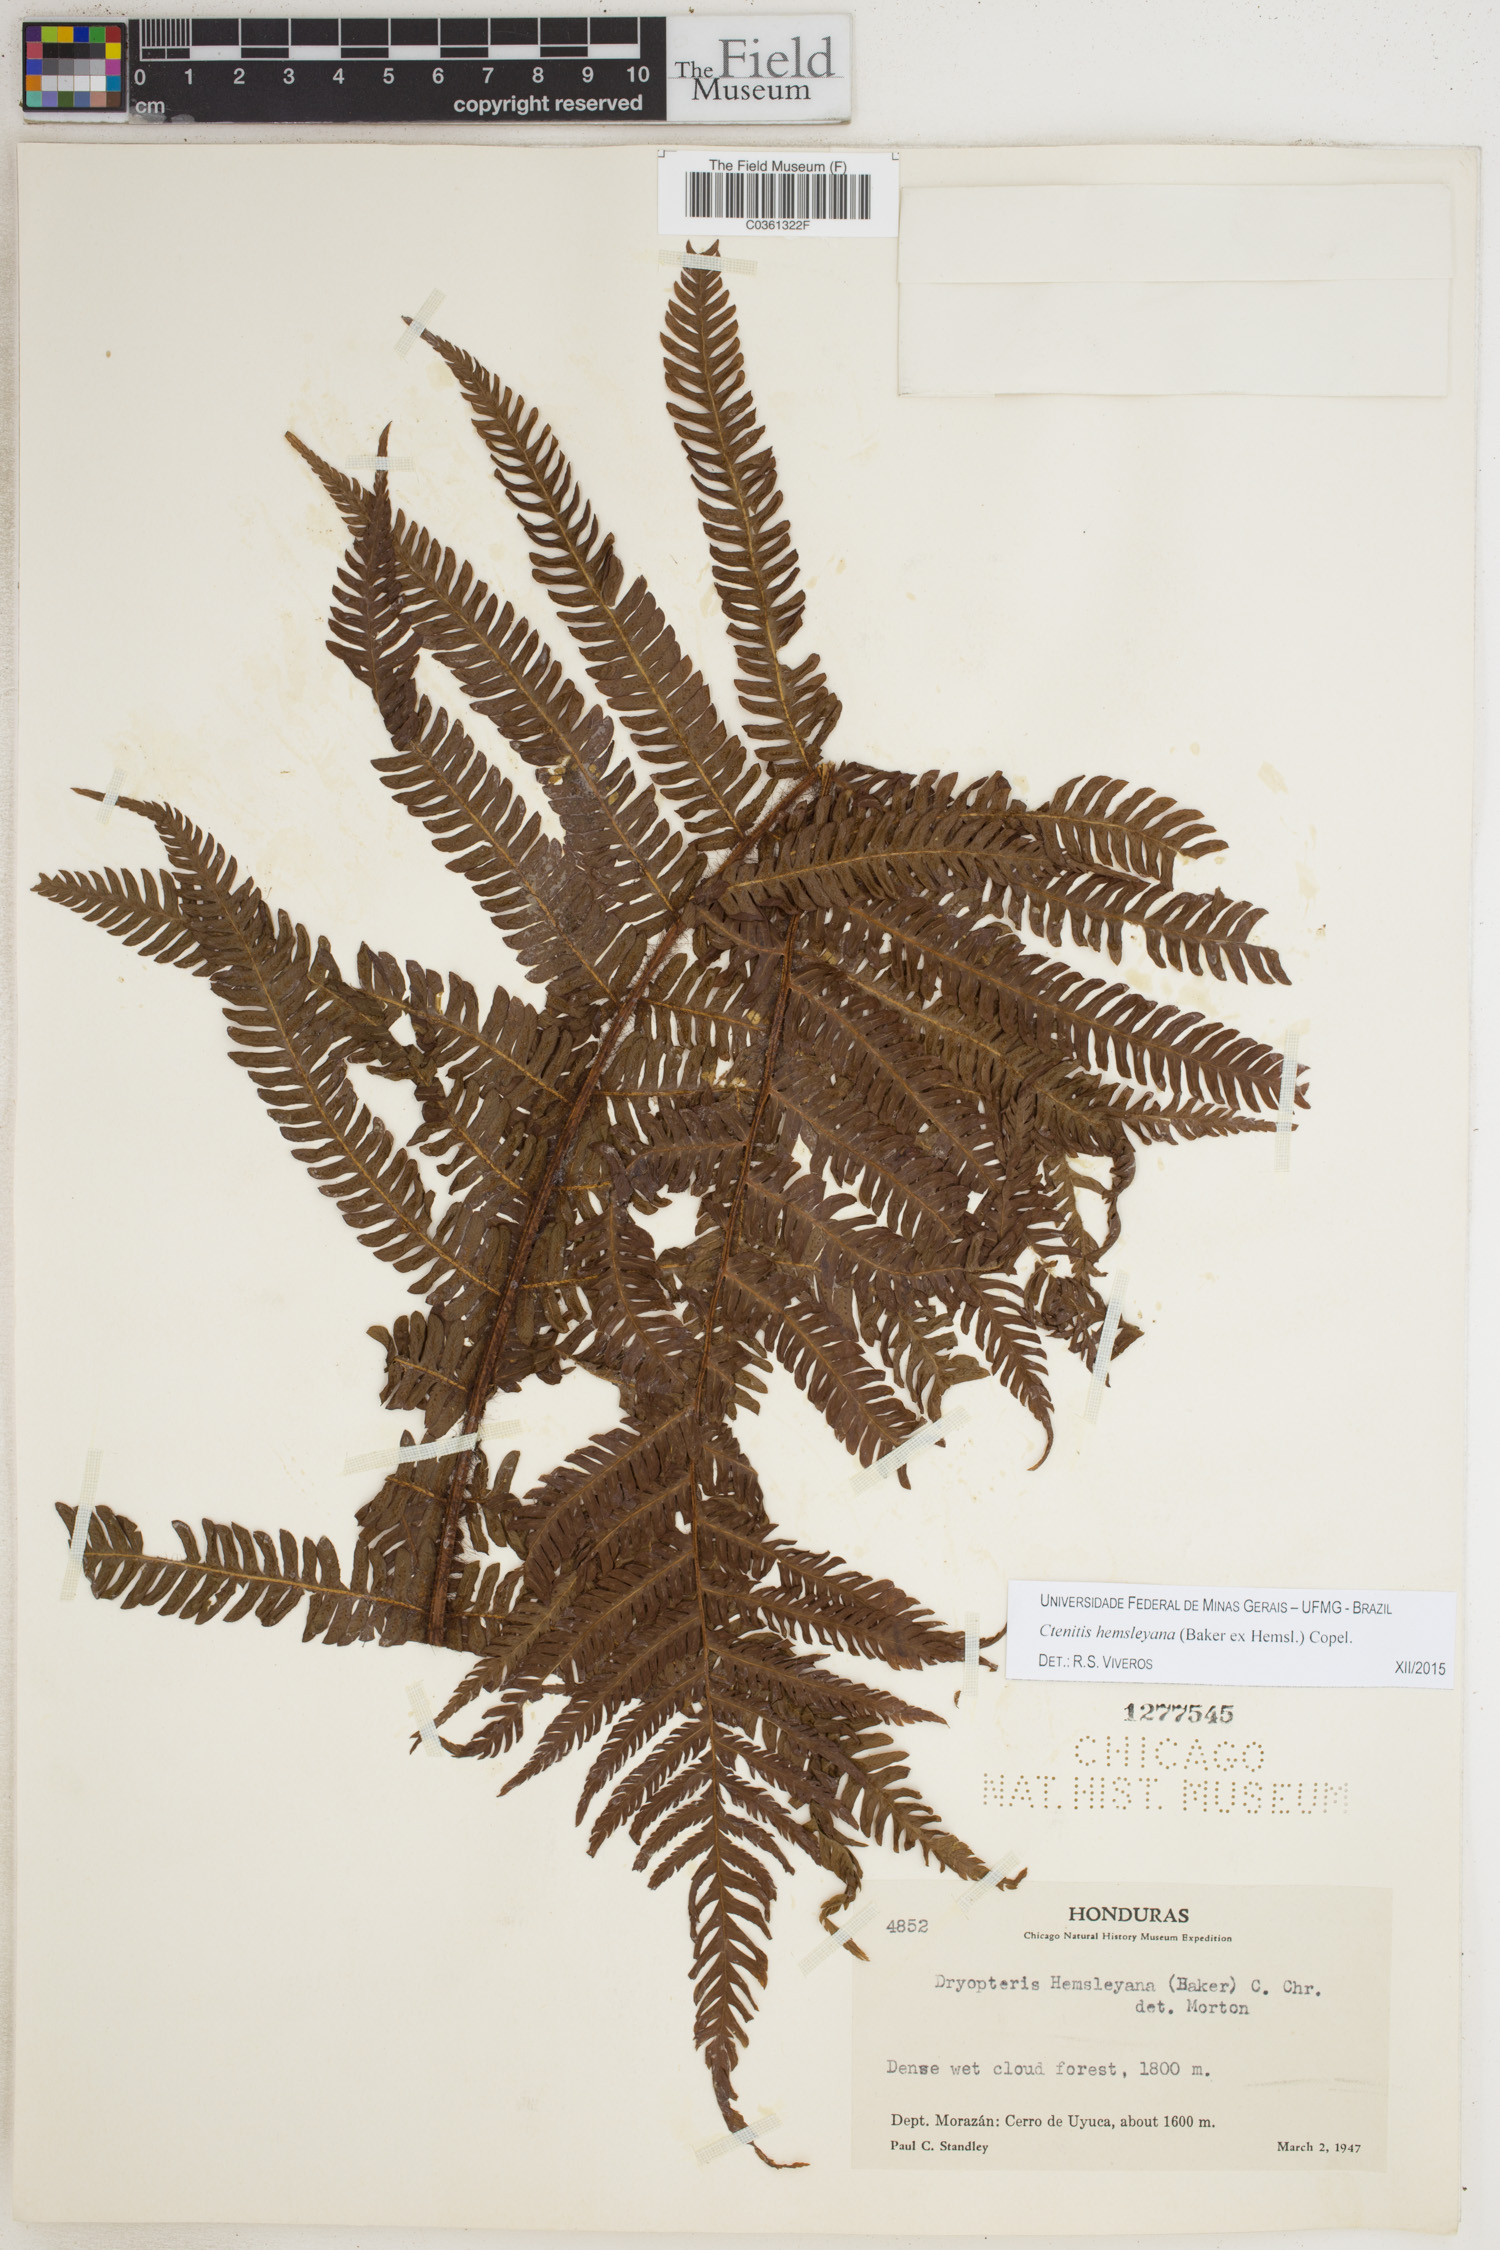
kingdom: Plantae
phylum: Tracheophyta
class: Polypodiopsida
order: Polypodiales
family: Dryopteridaceae
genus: Ctenitis
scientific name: Ctenitis hemsleyana
